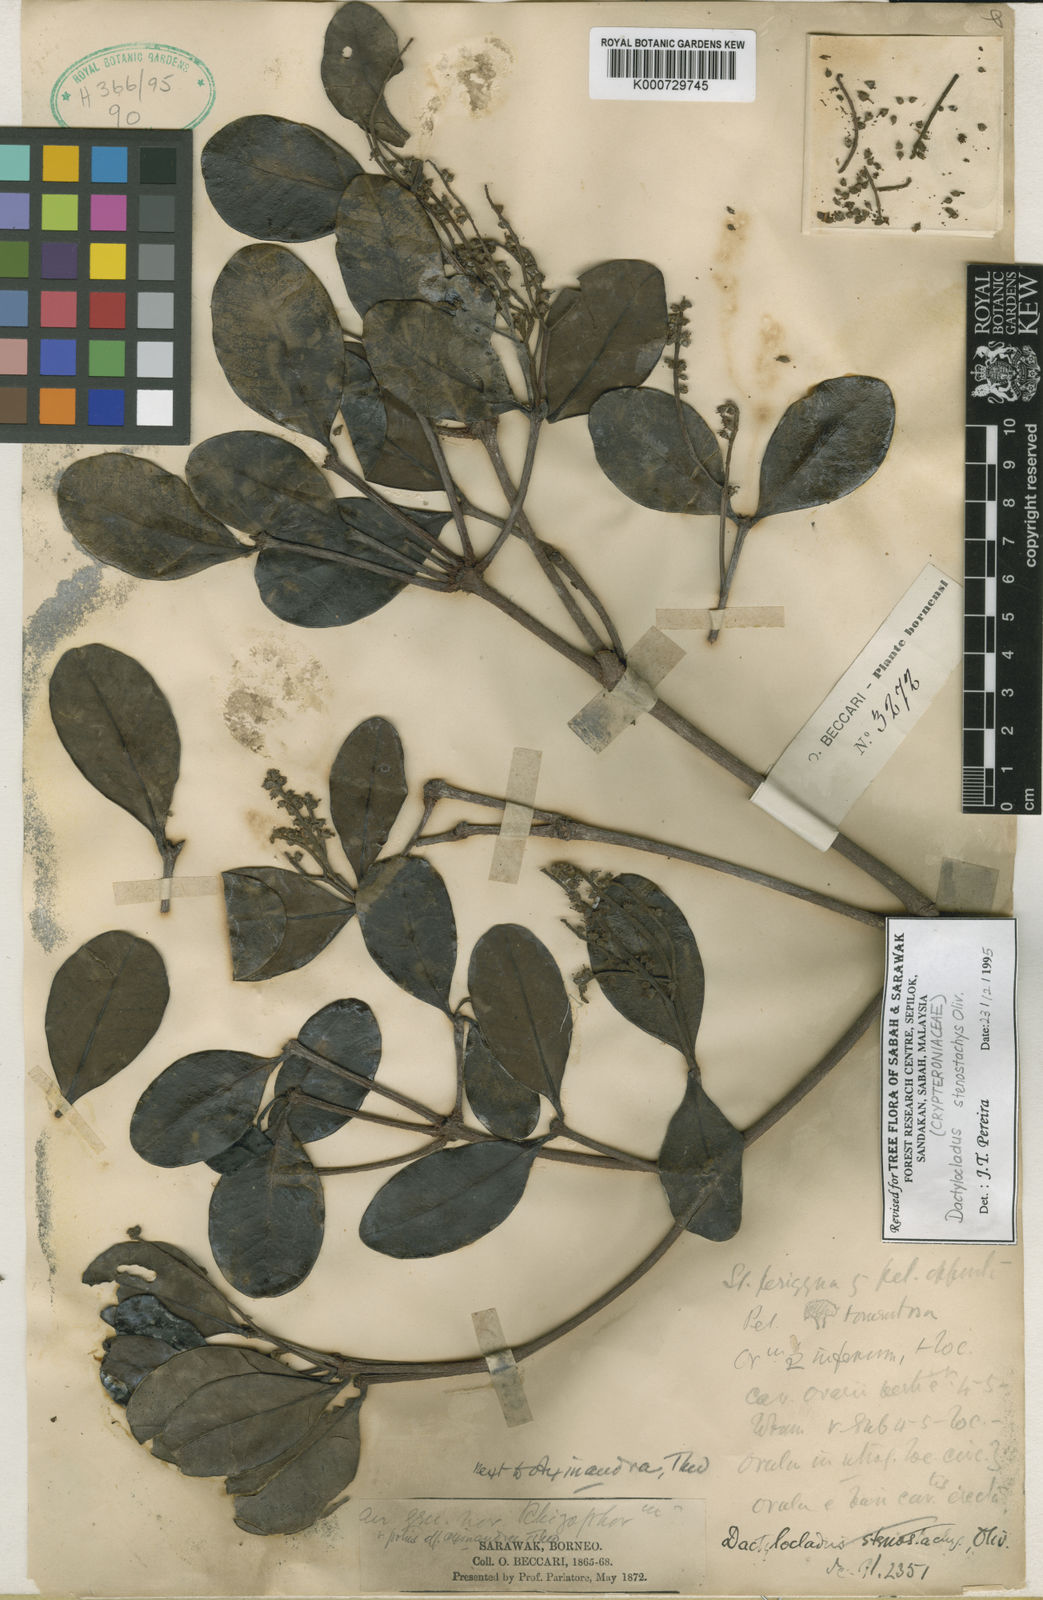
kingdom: Plantae
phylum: Tracheophyta
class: Magnoliopsida
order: Myrtales
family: Crypteroniaceae
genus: Dactylocladus
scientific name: Dactylocladus stenostachys
